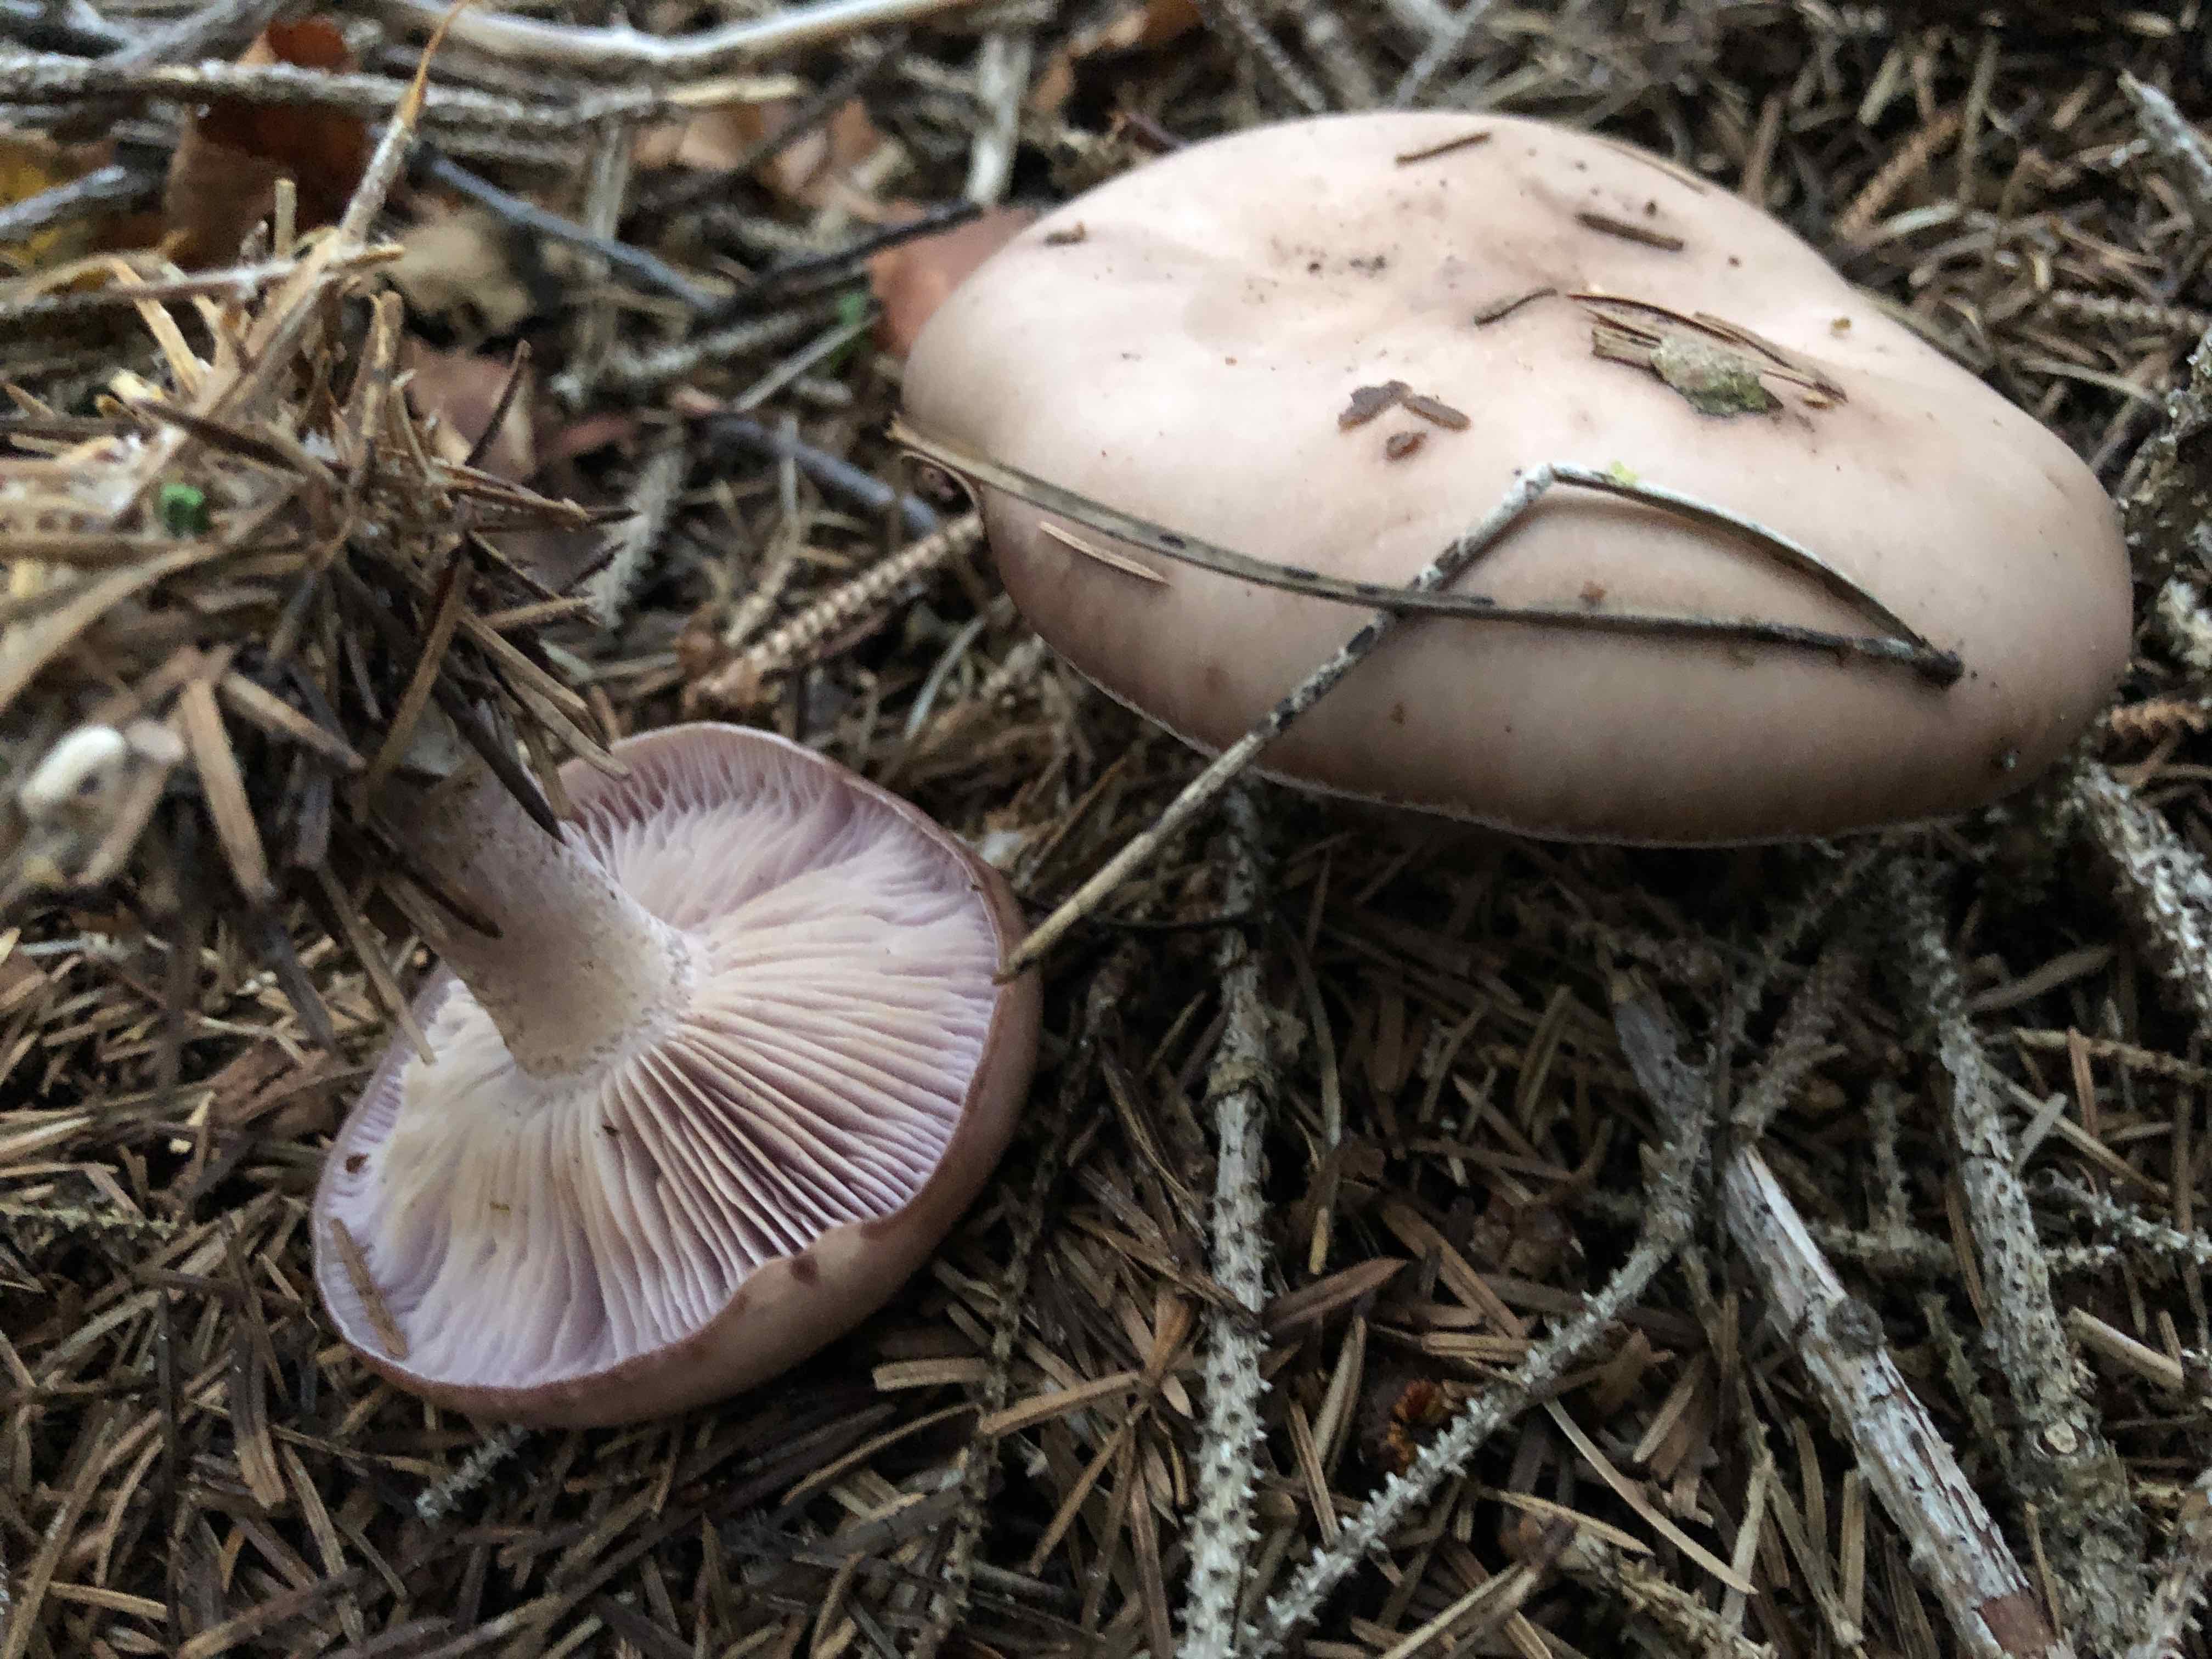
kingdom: Fungi
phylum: Basidiomycota
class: Agaricomycetes
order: Agaricales
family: Tricholomataceae
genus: Lepista
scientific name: Lepista nuda
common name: violet hekseringshat
